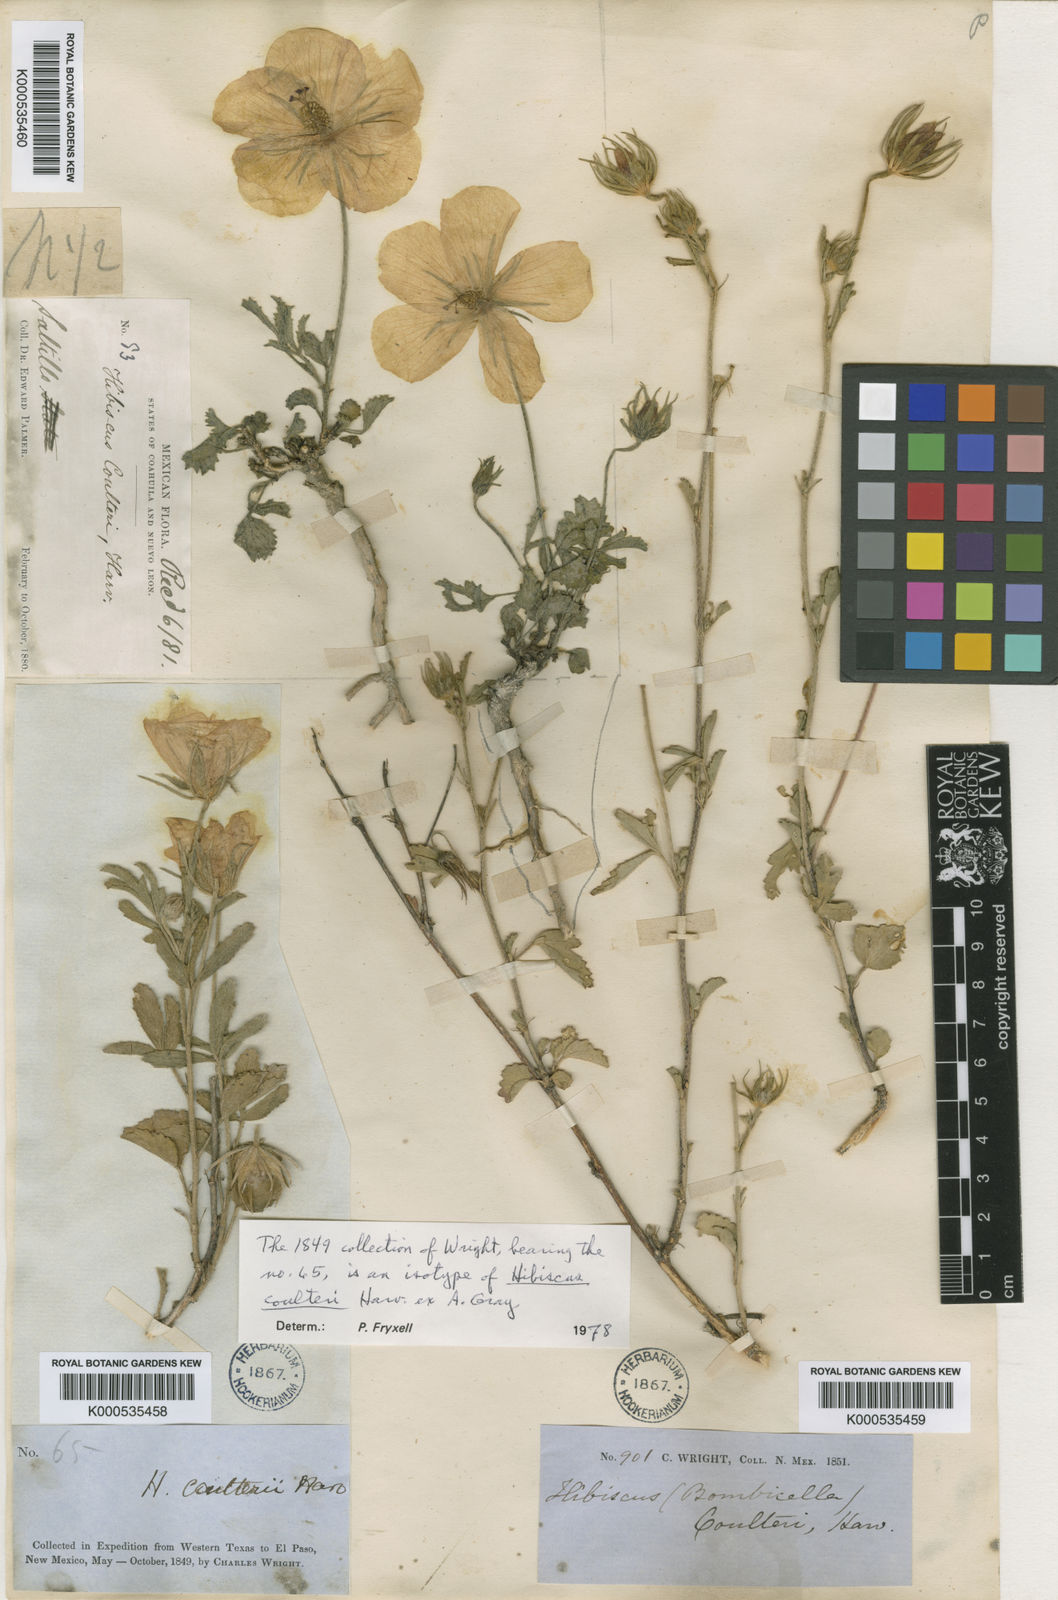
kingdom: Plantae
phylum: Tracheophyta
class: Magnoliopsida
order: Malvales
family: Malvaceae
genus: Hibiscus
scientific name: Hibiscus coulteri
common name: Desert rose-mallow
